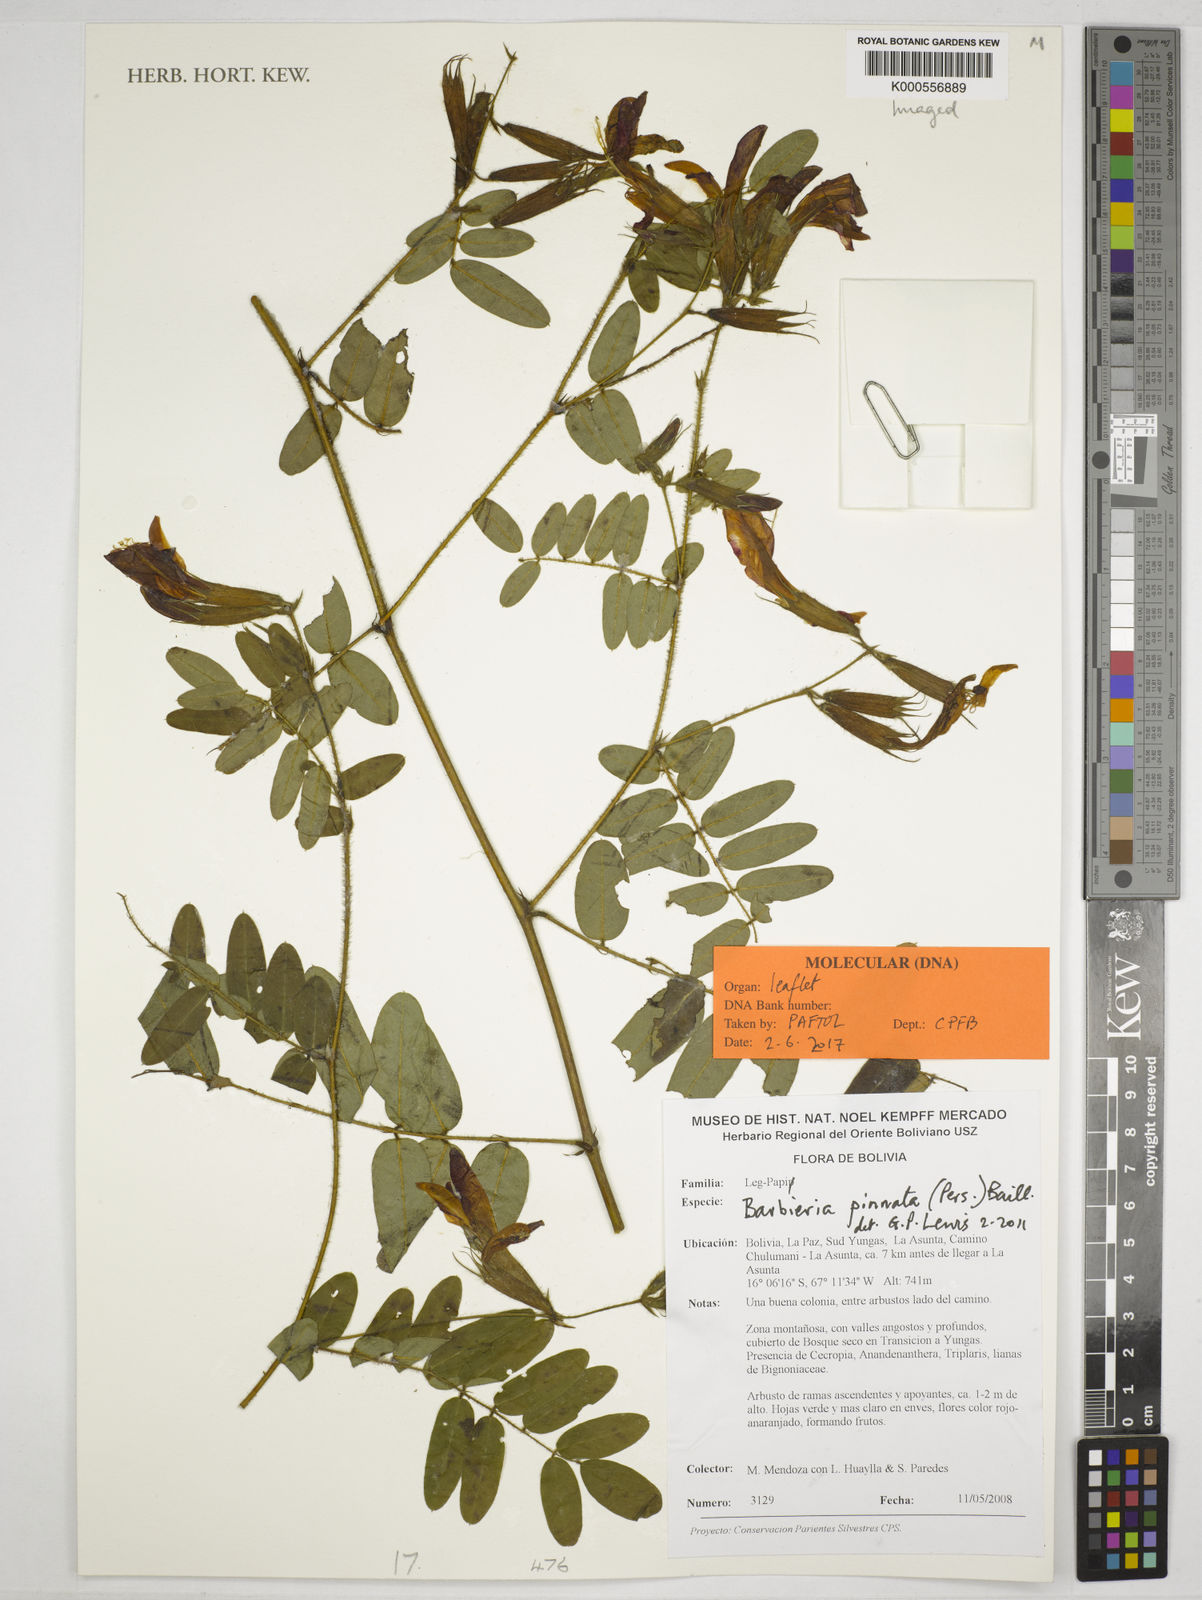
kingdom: Plantae
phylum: Tracheophyta
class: Magnoliopsida
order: Fabales
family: Fabaceae
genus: Barbieria
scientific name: Barbieria pinnata
